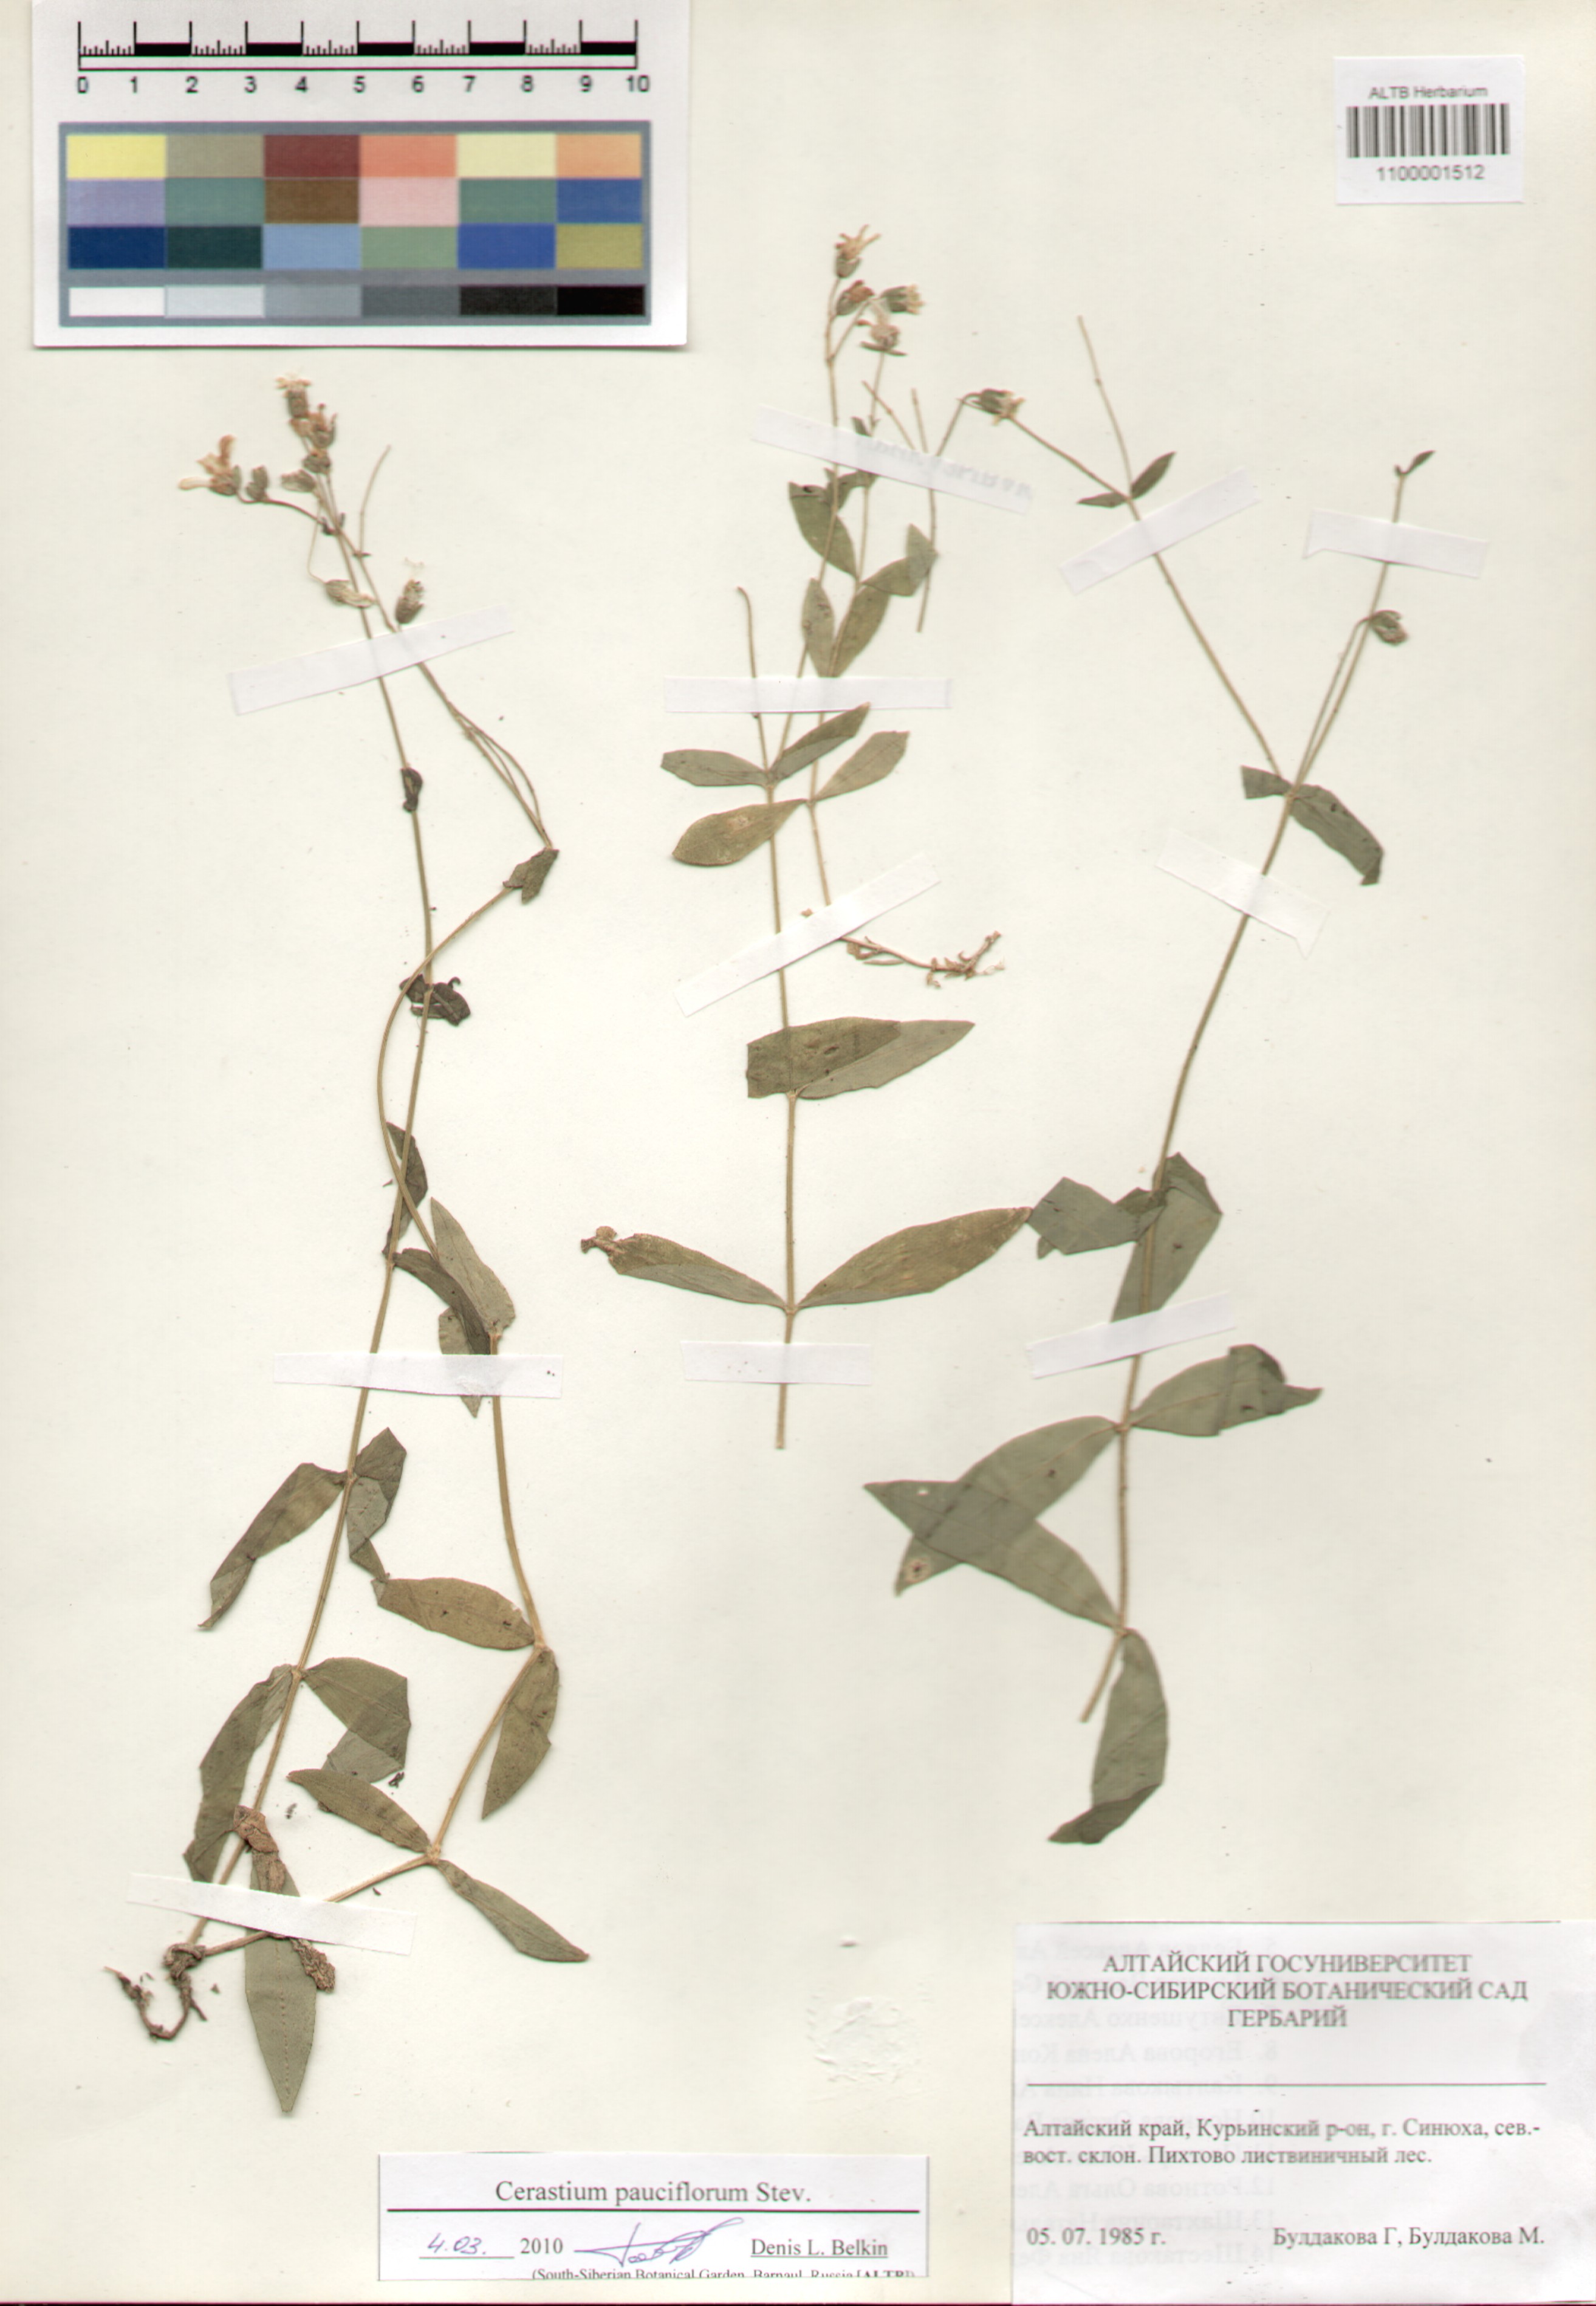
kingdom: Plantae
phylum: Tracheophyta
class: Magnoliopsida
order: Caryophyllales
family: Caryophyllaceae
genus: Cerastium
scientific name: Cerastium pauciflorum
